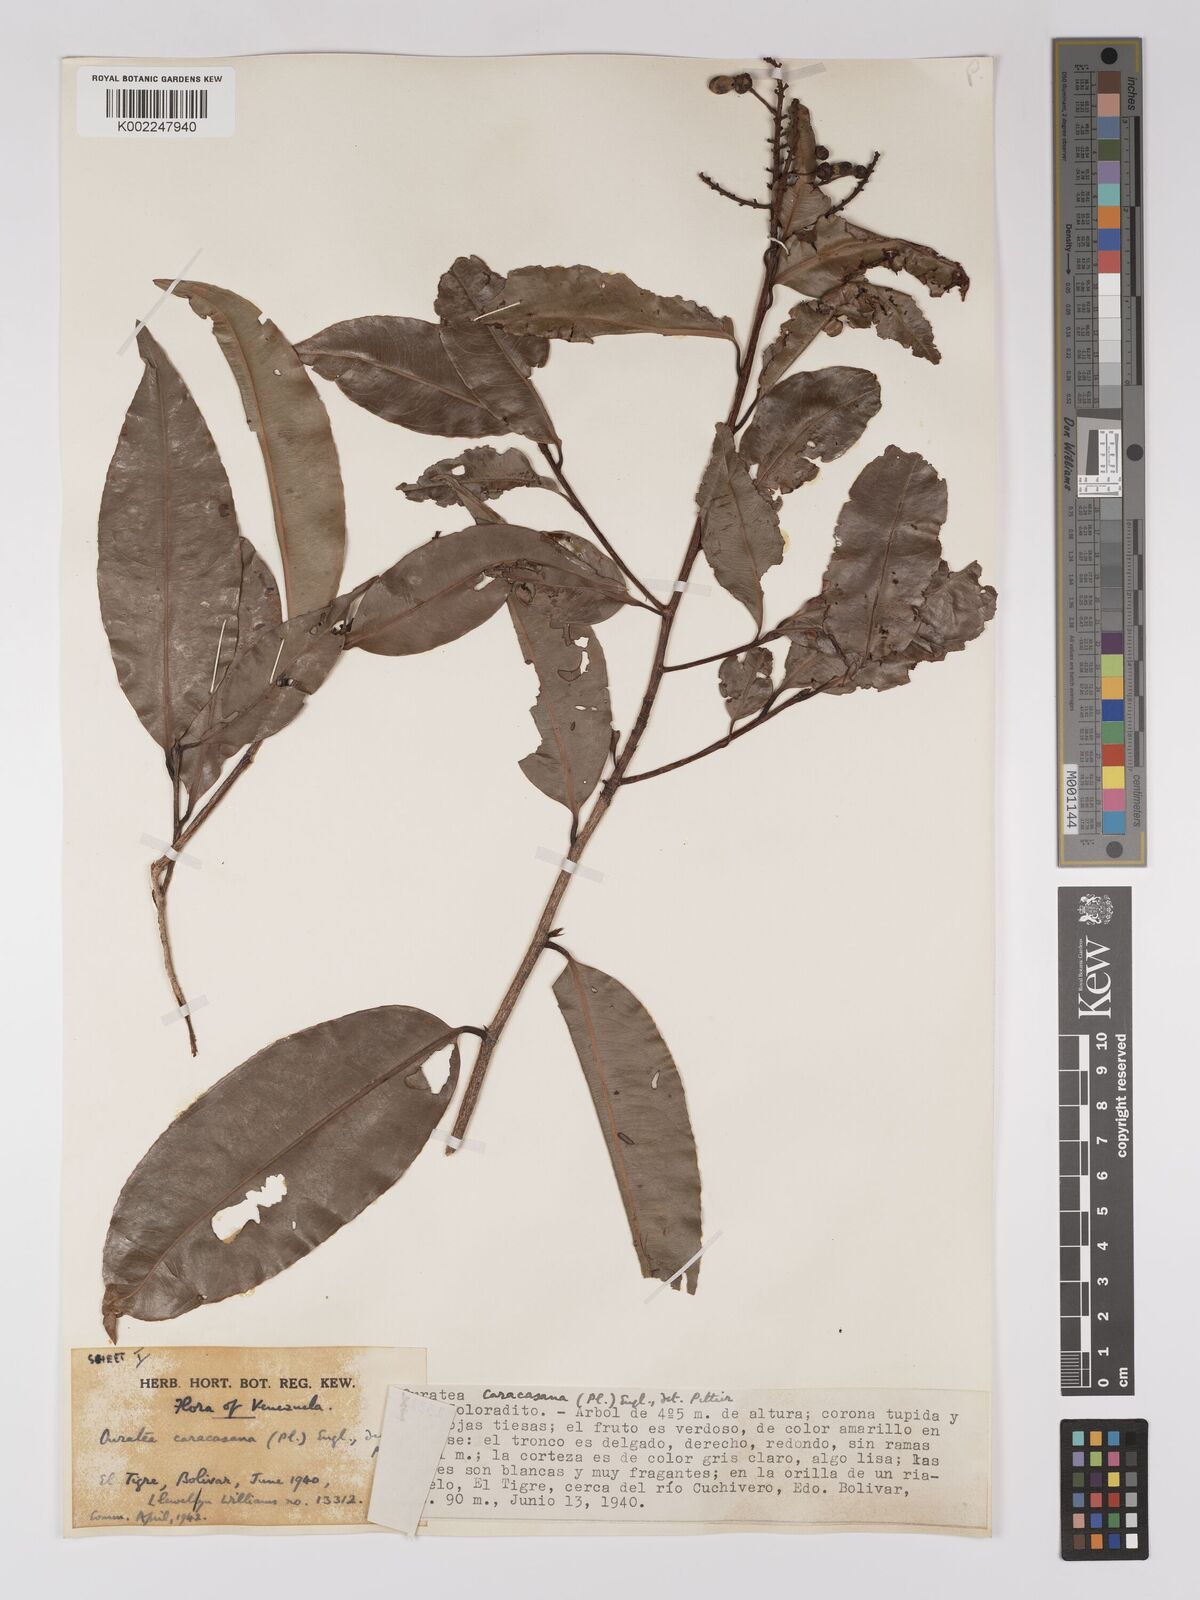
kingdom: Plantae
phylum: Tracheophyta
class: Magnoliopsida
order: Malpighiales
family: Ochnaceae
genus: Ouratea
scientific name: Ouratea caracasana
